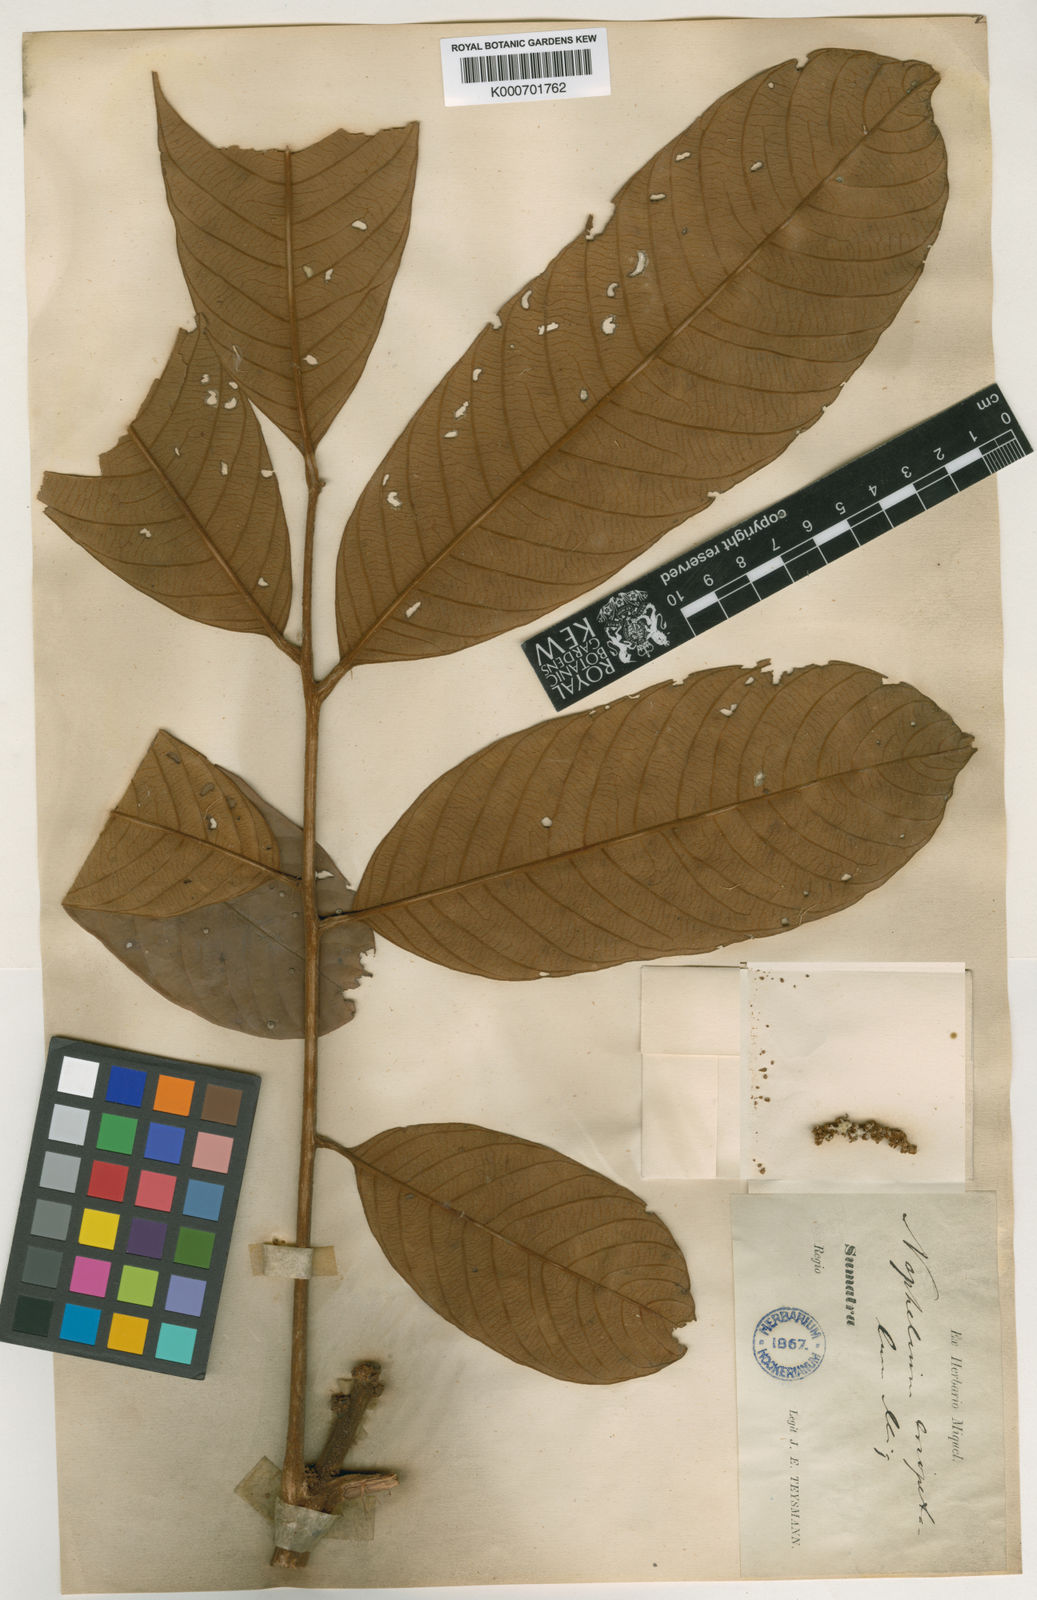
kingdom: Plantae
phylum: Tracheophyta
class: Magnoliopsida
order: Sapindales
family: Sapindaceae
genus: Nephelium
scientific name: Nephelium cuspidatum
